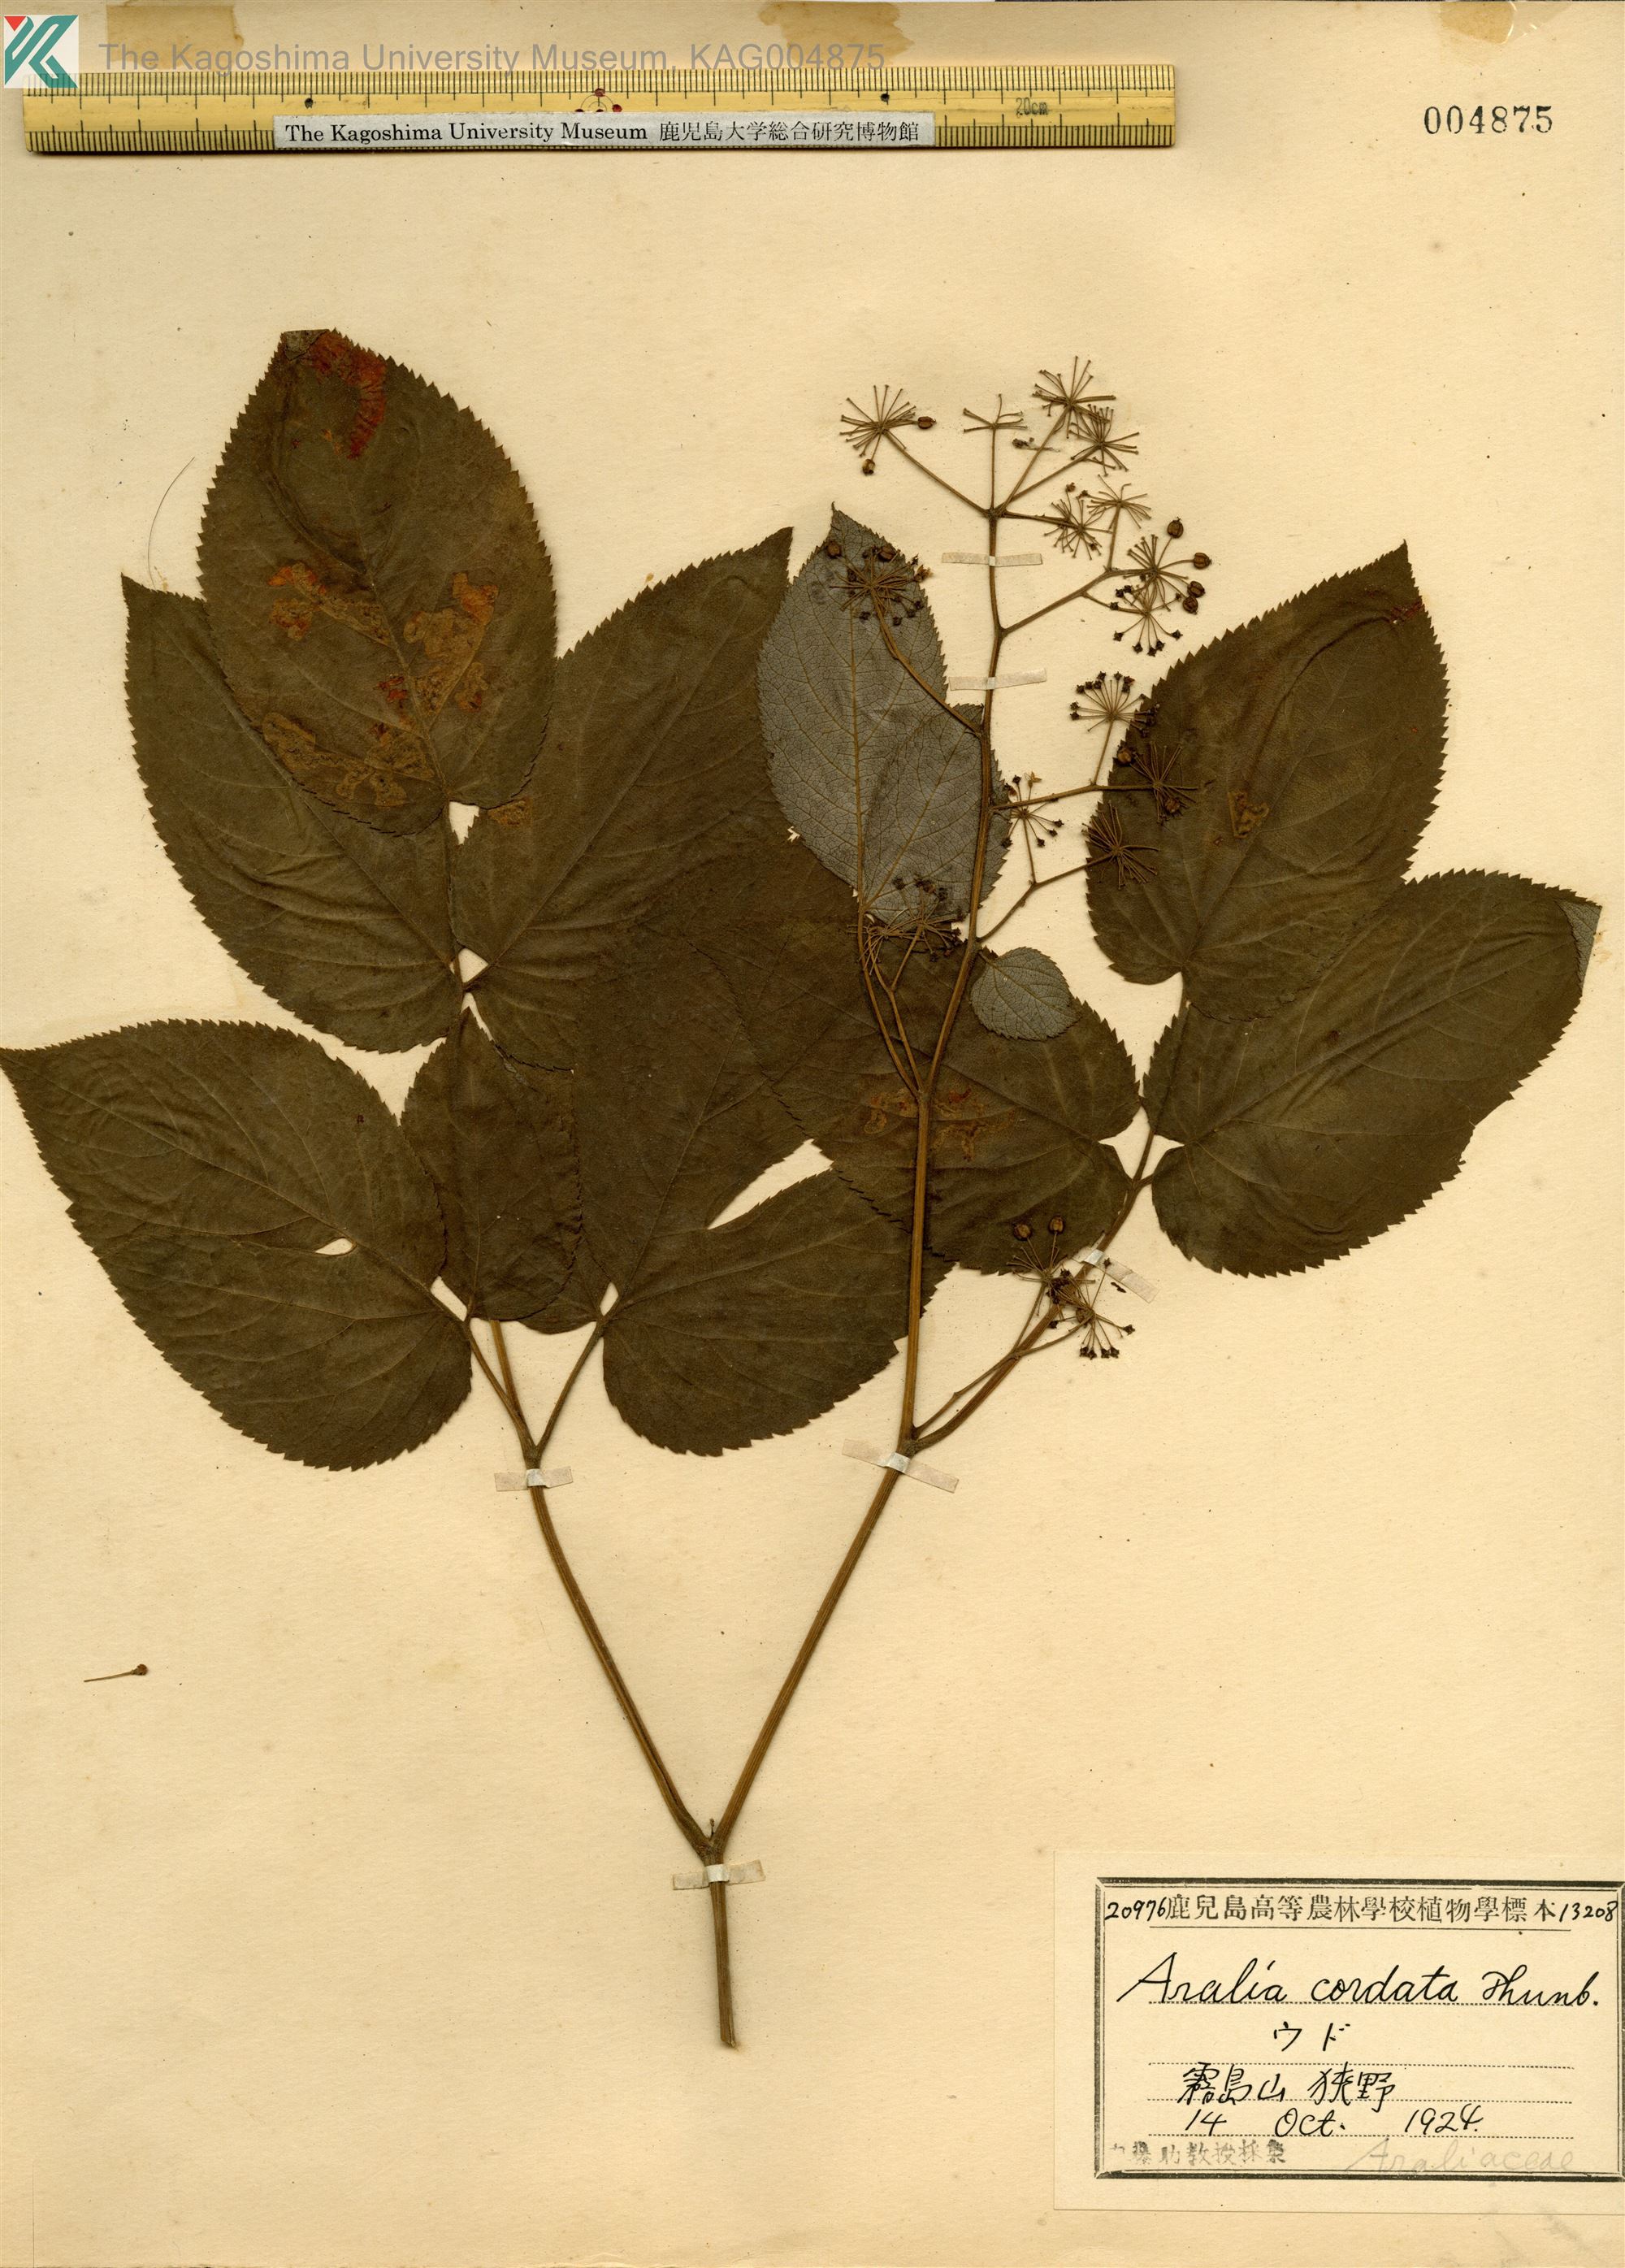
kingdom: Plantae
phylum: Tracheophyta
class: Magnoliopsida
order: Apiales
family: Araliaceae
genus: Aralia
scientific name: Aralia cordata
